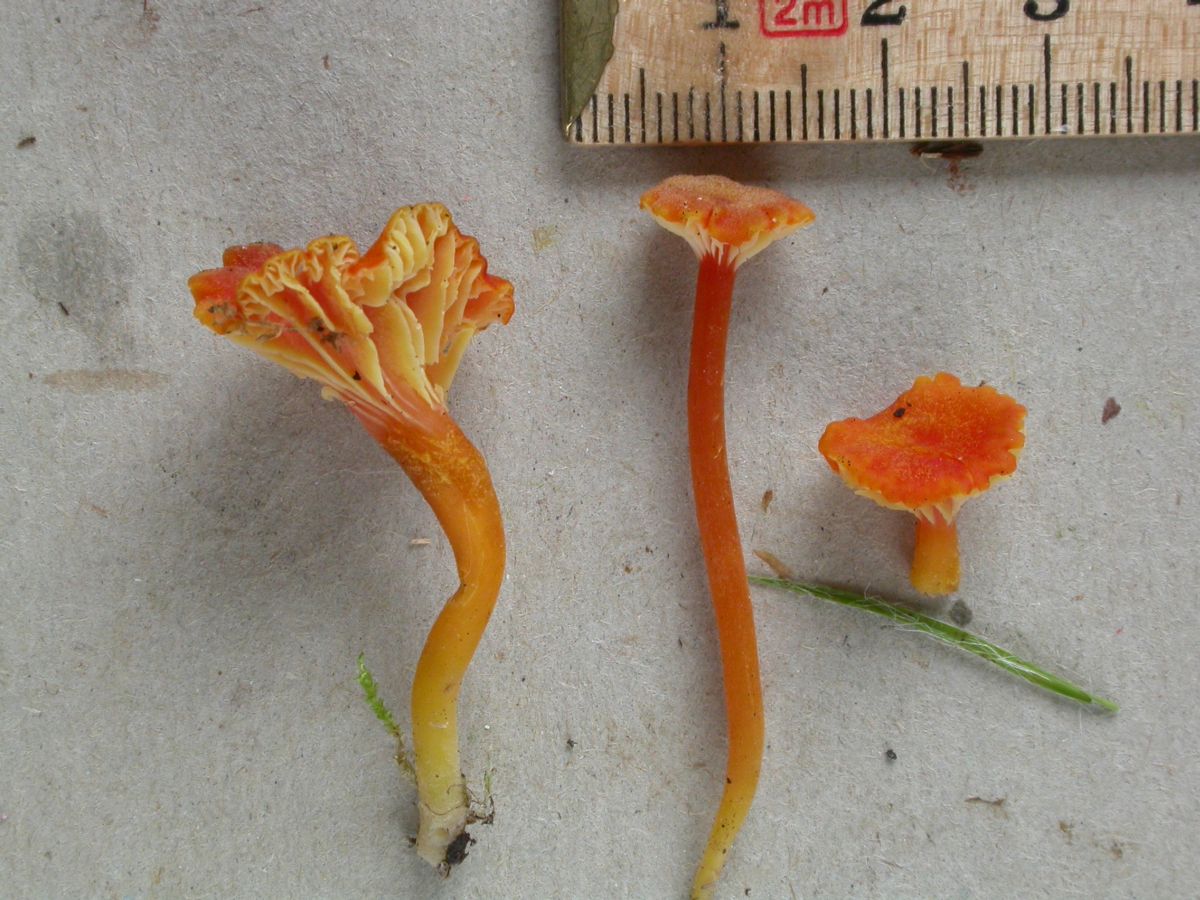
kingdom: Fungi
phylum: Basidiomycota
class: Agaricomycetes
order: Agaricales
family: Hygrophoraceae
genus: Hygrocybe
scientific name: Hygrocybe cantharellus
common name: kantarel-vokshat
